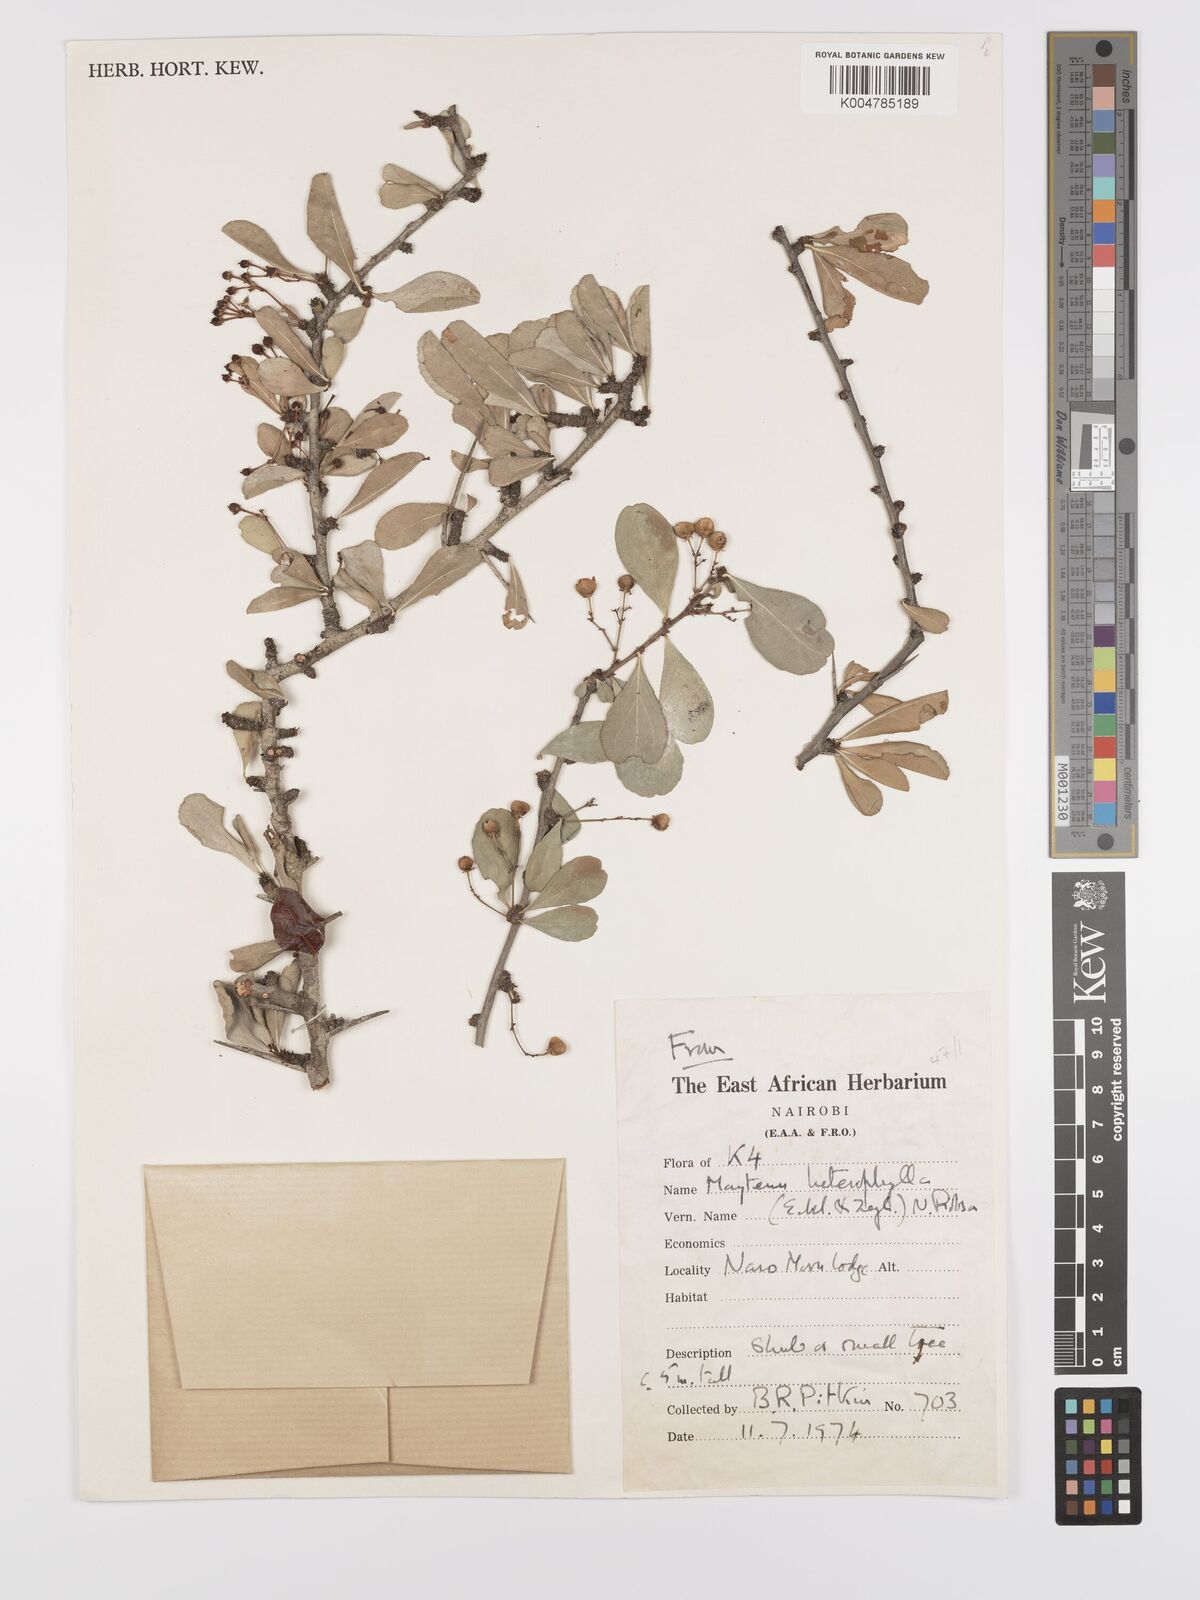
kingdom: Plantae
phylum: Tracheophyta
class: Magnoliopsida
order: Celastrales
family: Celastraceae
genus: Gymnosporia
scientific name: Gymnosporia heterophylla
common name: Angle-stem spikethorn
